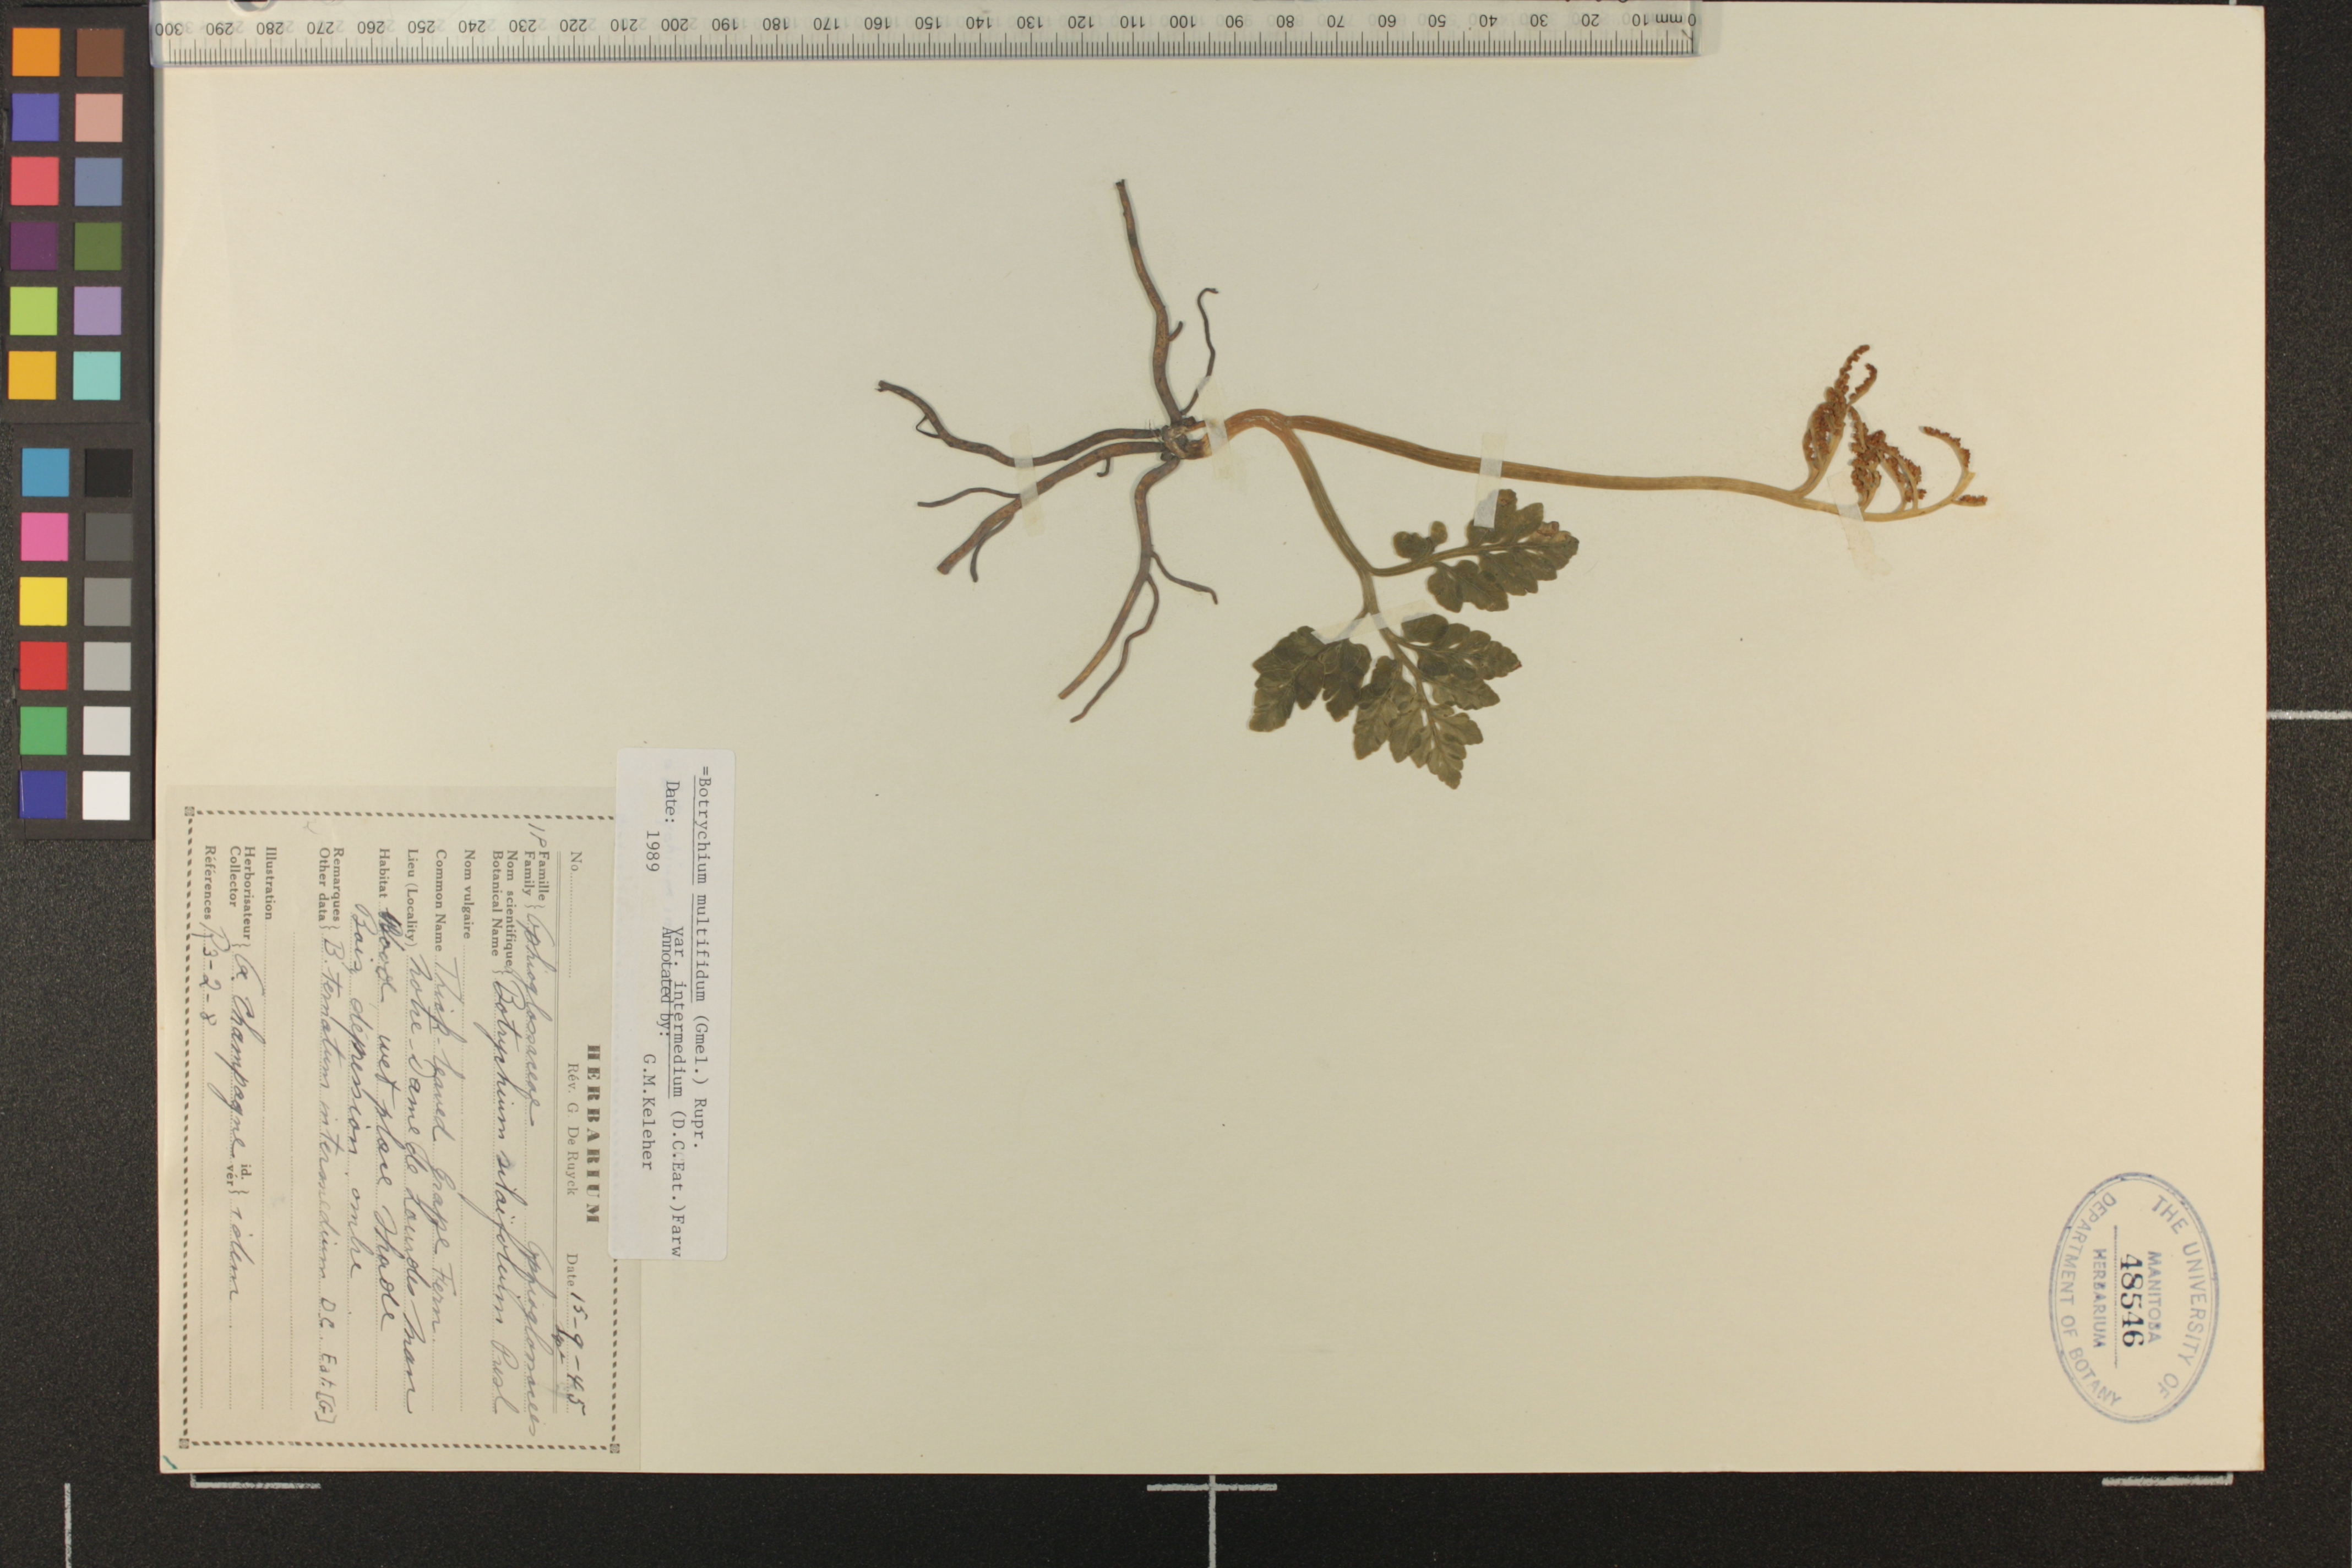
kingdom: Plantae
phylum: Tracheophyta
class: Polypodiopsida
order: Ophioglossales
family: Ophioglossaceae
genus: Sceptridium
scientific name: Sceptridium multifidum
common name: Leathery grape fern
